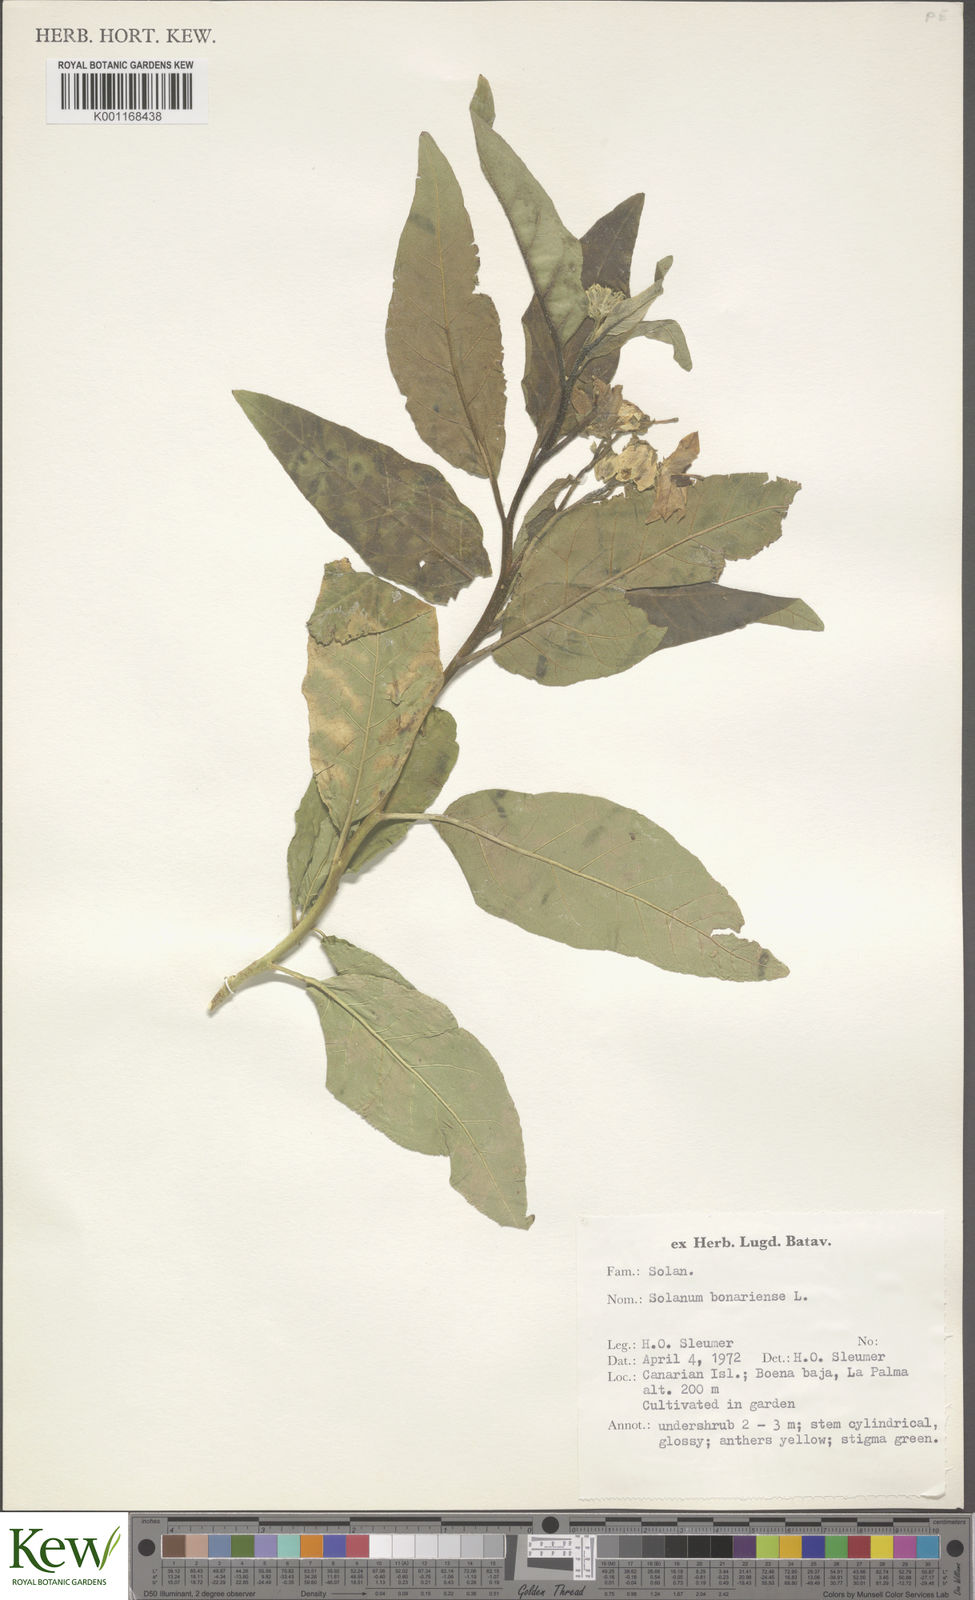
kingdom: Plantae
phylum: Tracheophyta
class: Magnoliopsida
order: Solanales
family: Solanaceae
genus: Solanum
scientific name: Solanum bonariense
